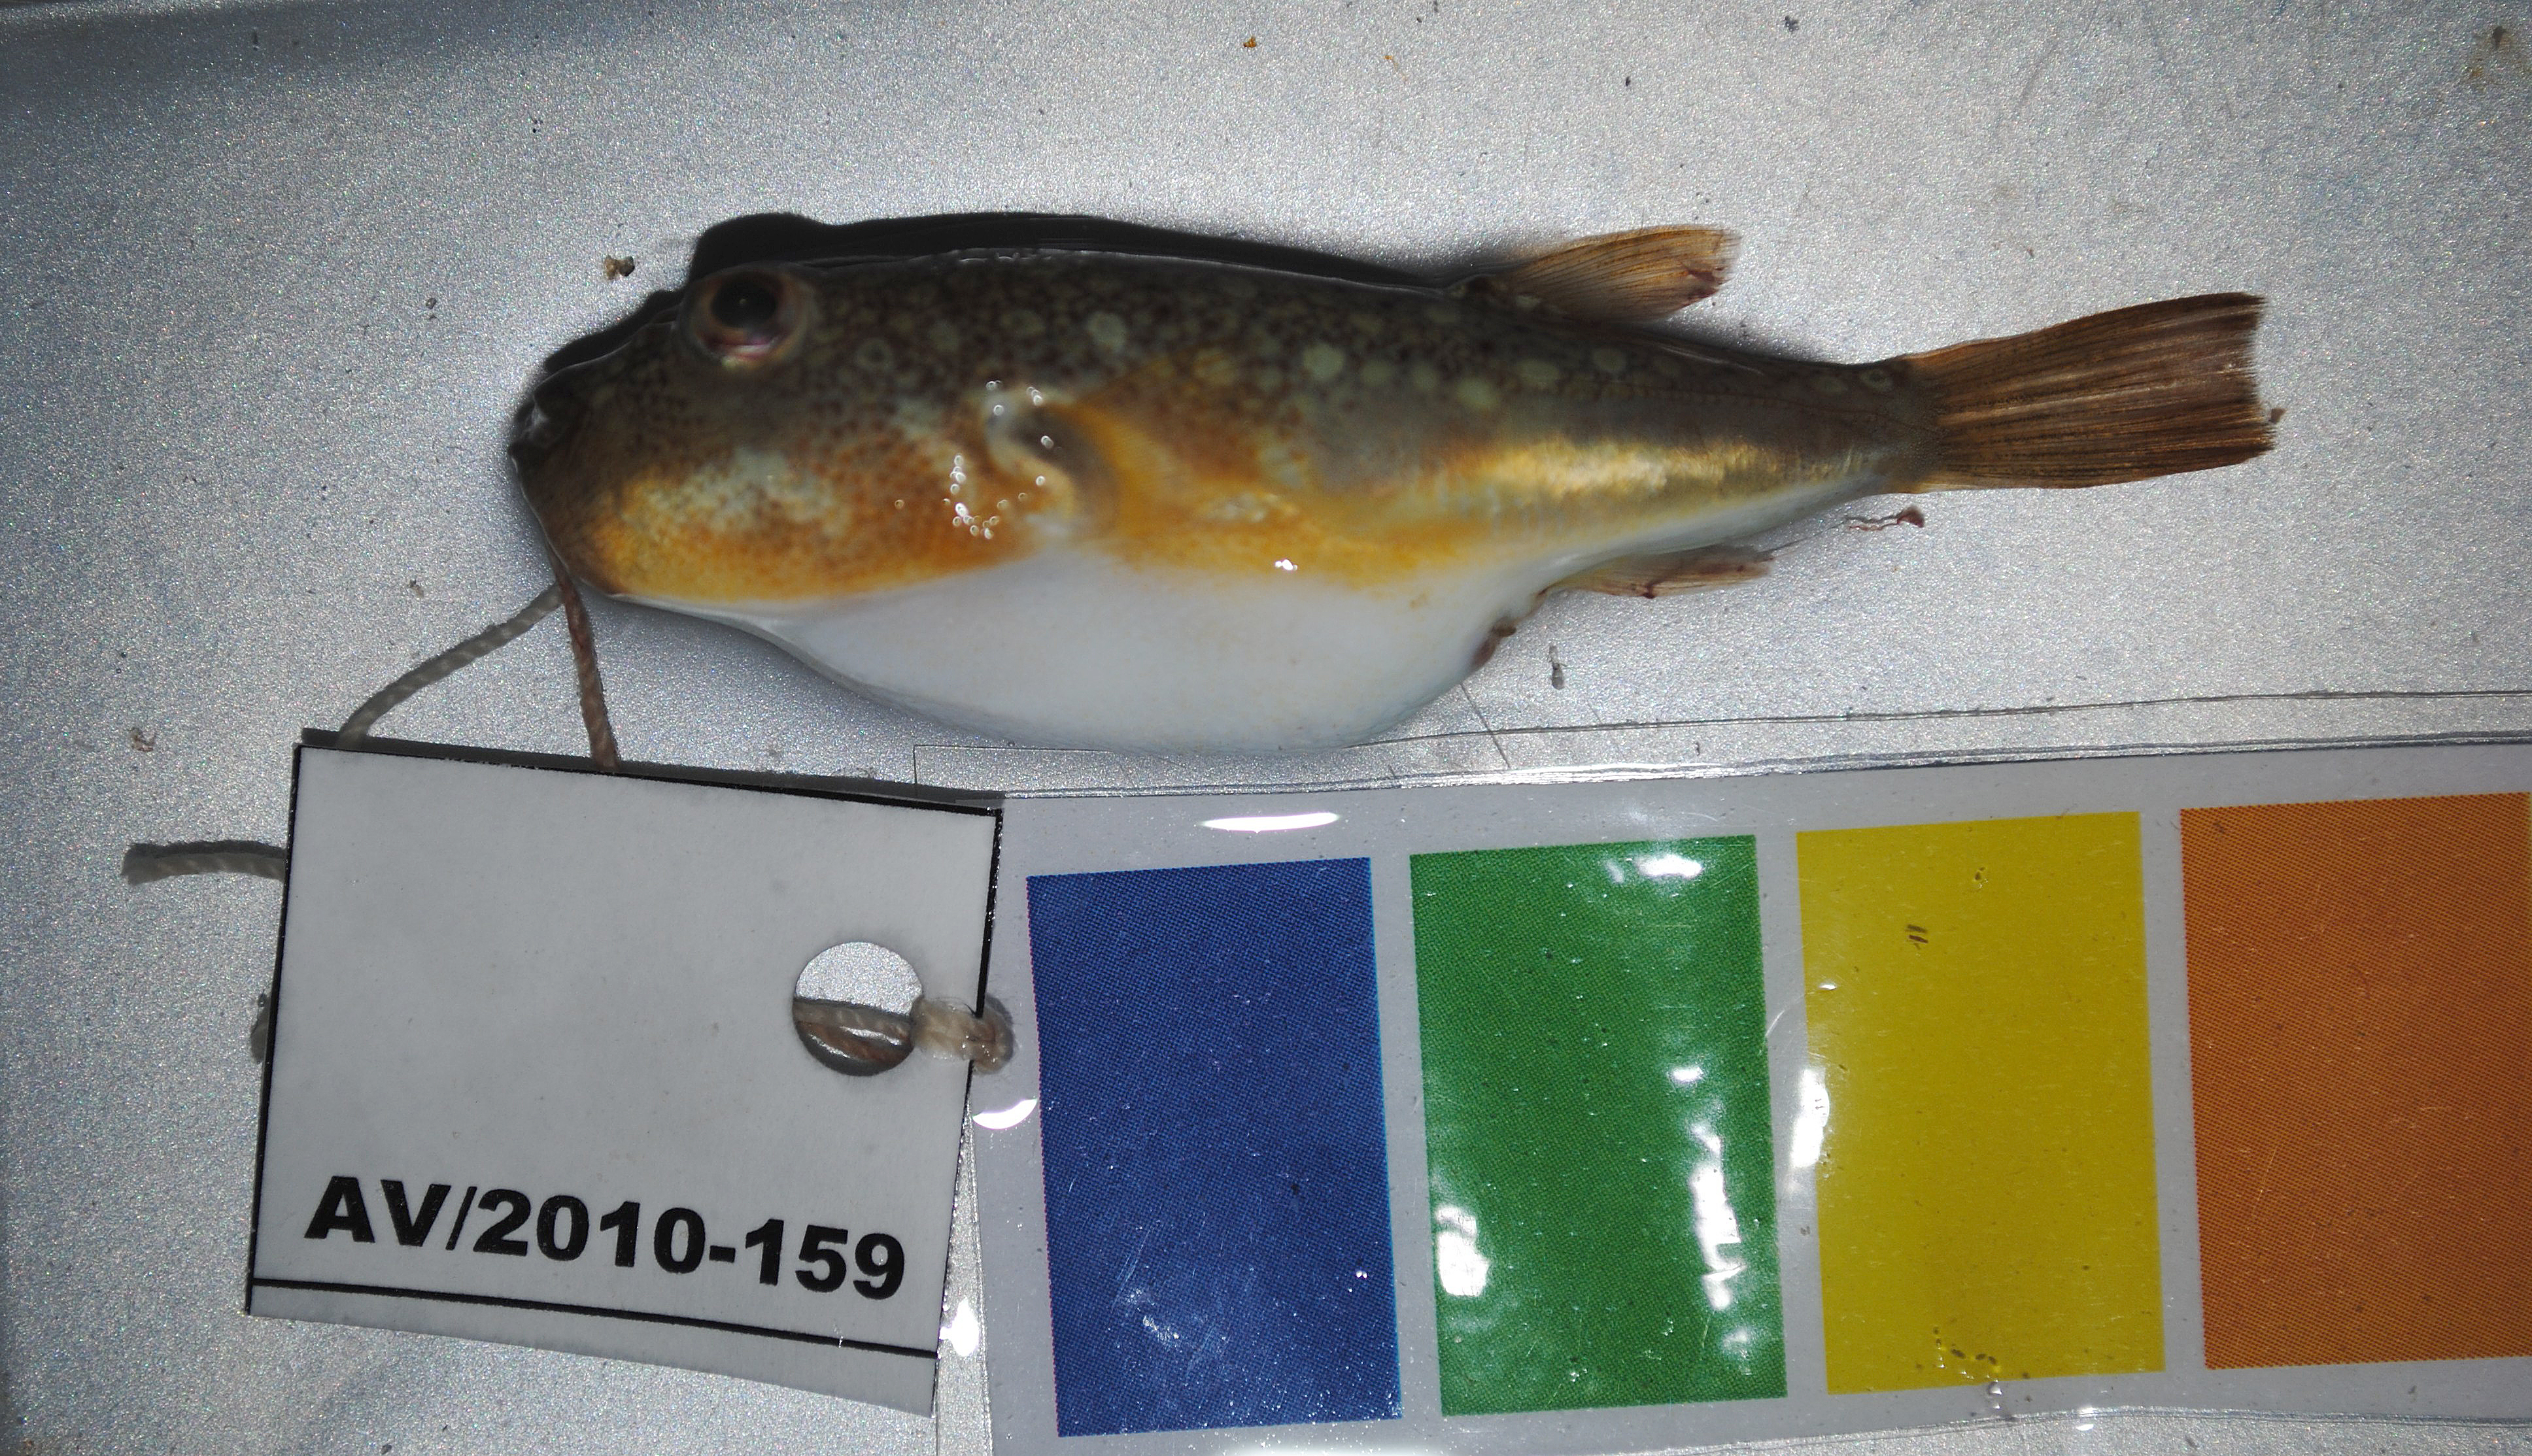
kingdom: Animalia
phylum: Chordata
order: Tetraodontiformes
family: Tetraodontidae
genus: Amblyrhynchotes
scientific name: Amblyrhynchotes honckenii
